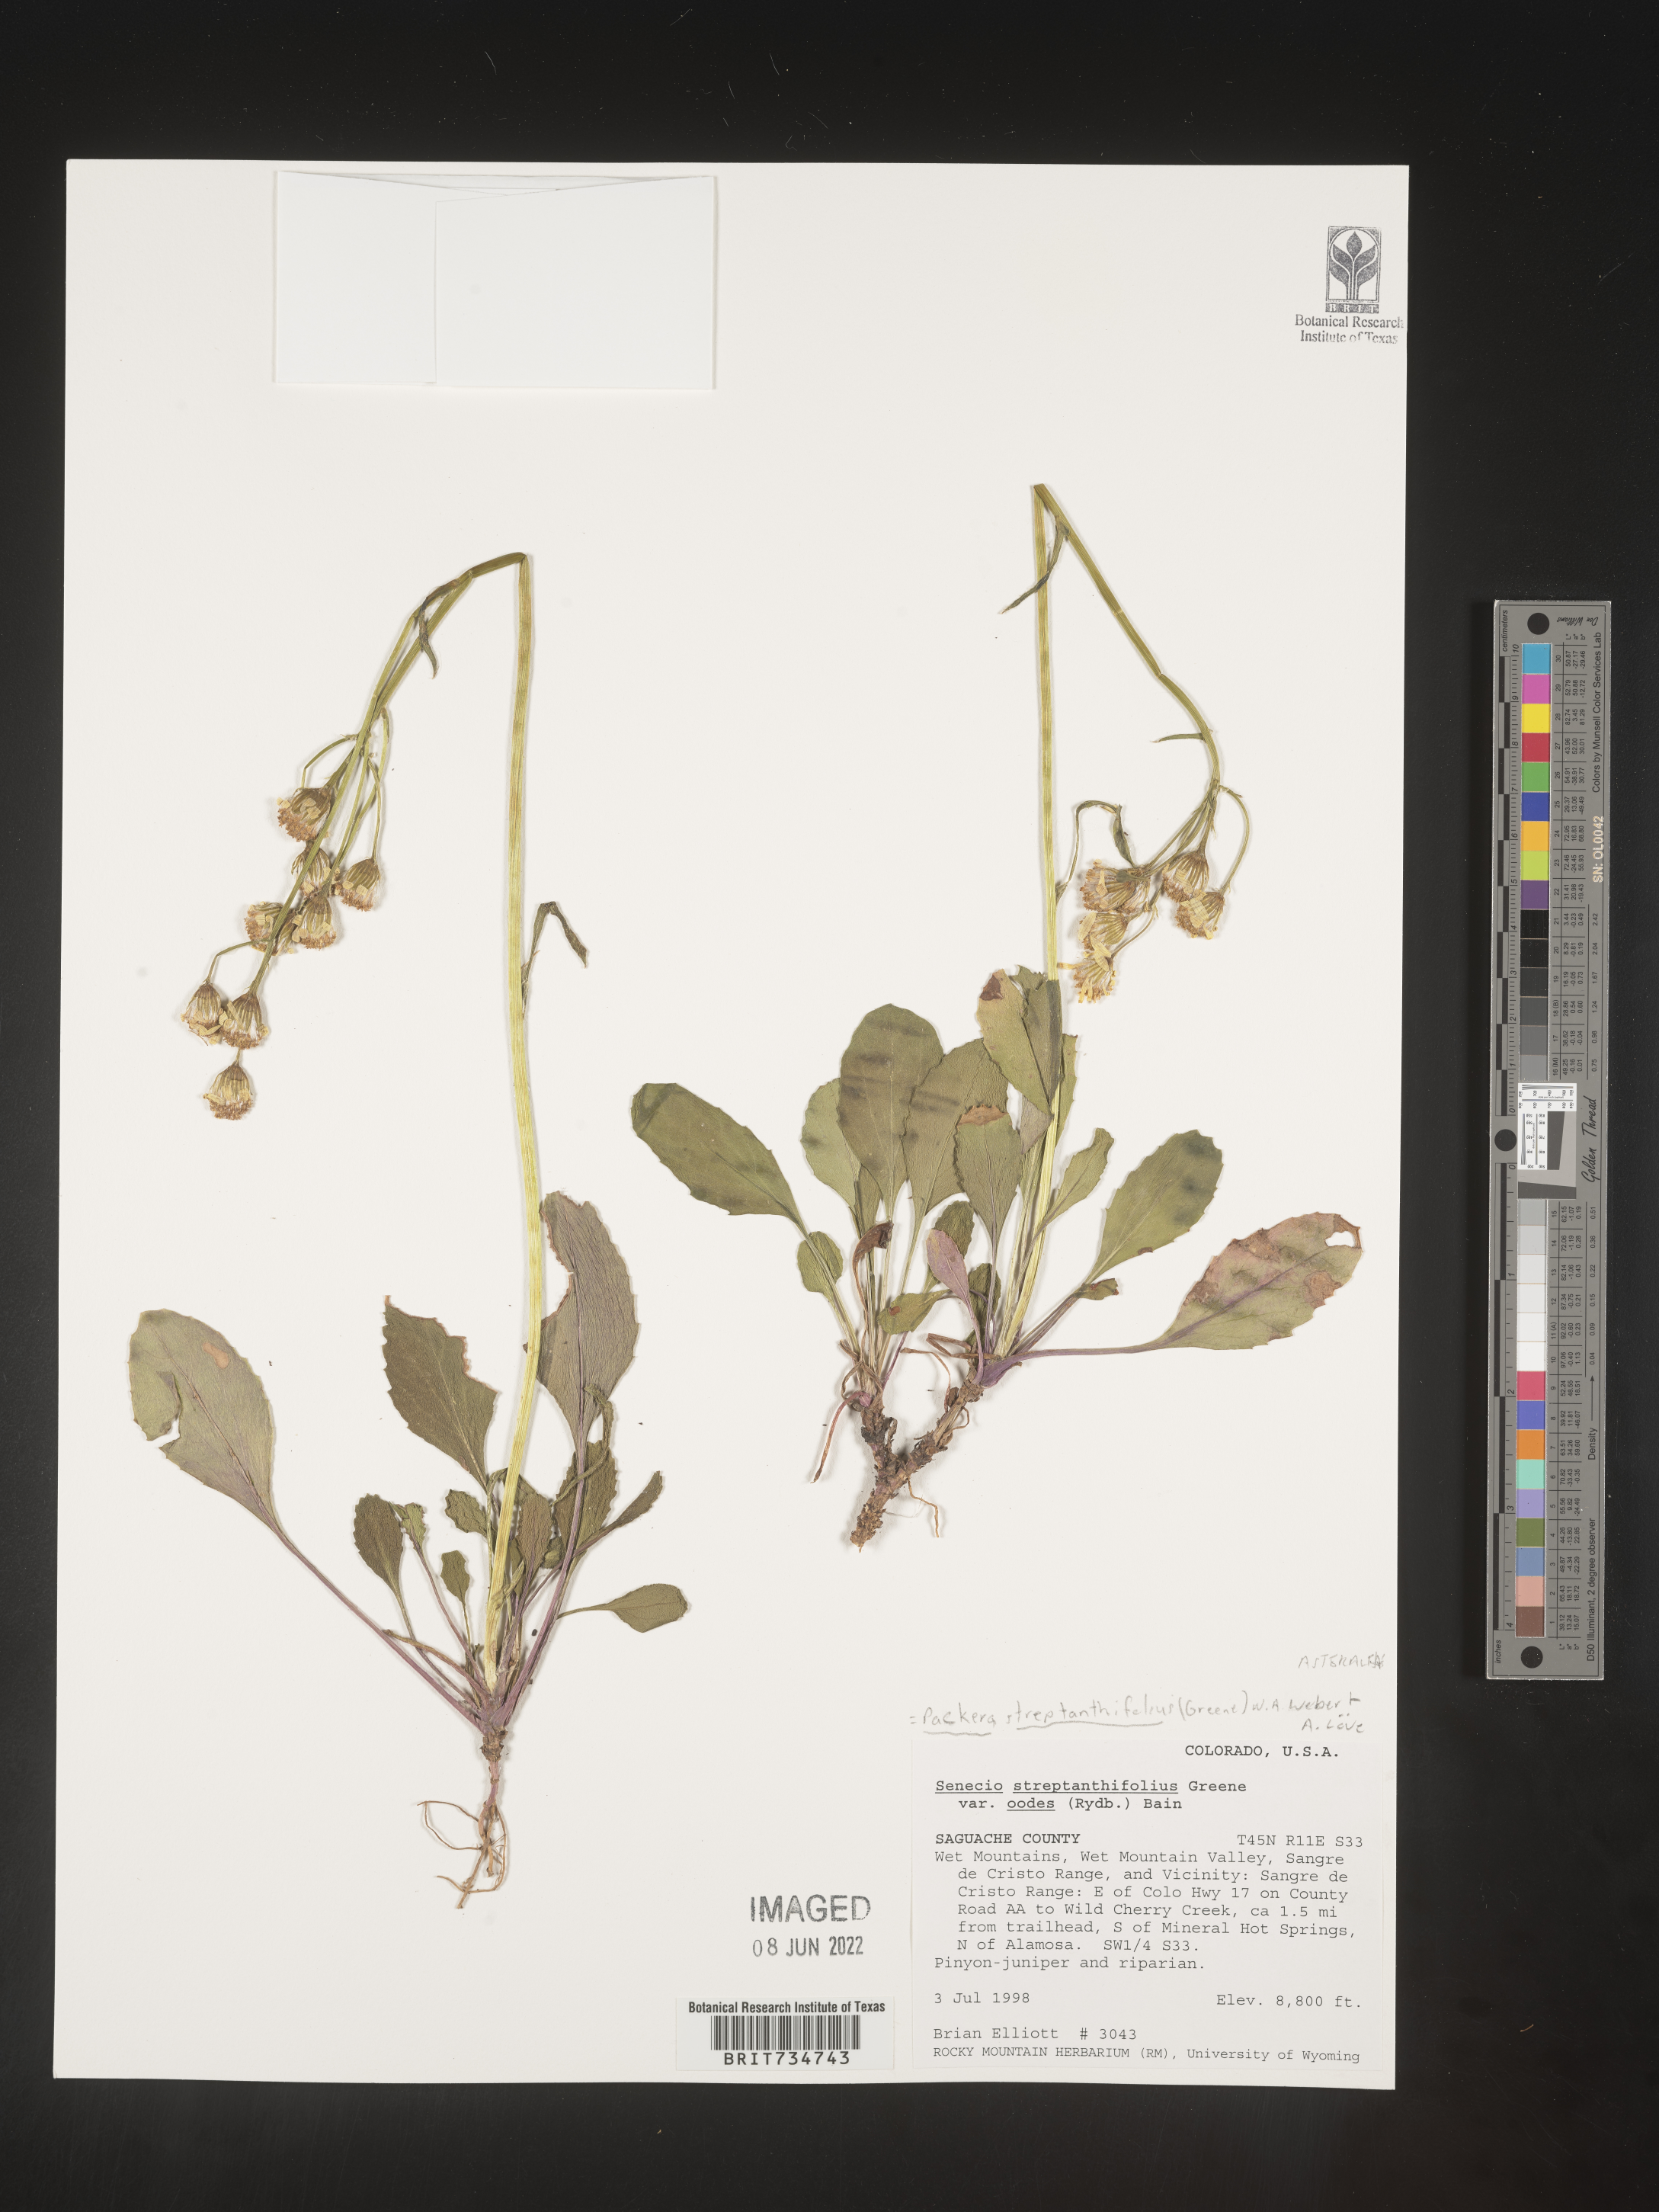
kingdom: Plantae
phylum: Tracheophyta
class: Magnoliopsida
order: Asterales
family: Asteraceae
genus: Packera
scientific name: Packera streptanthifolia
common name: Rocky mountain butterweed
